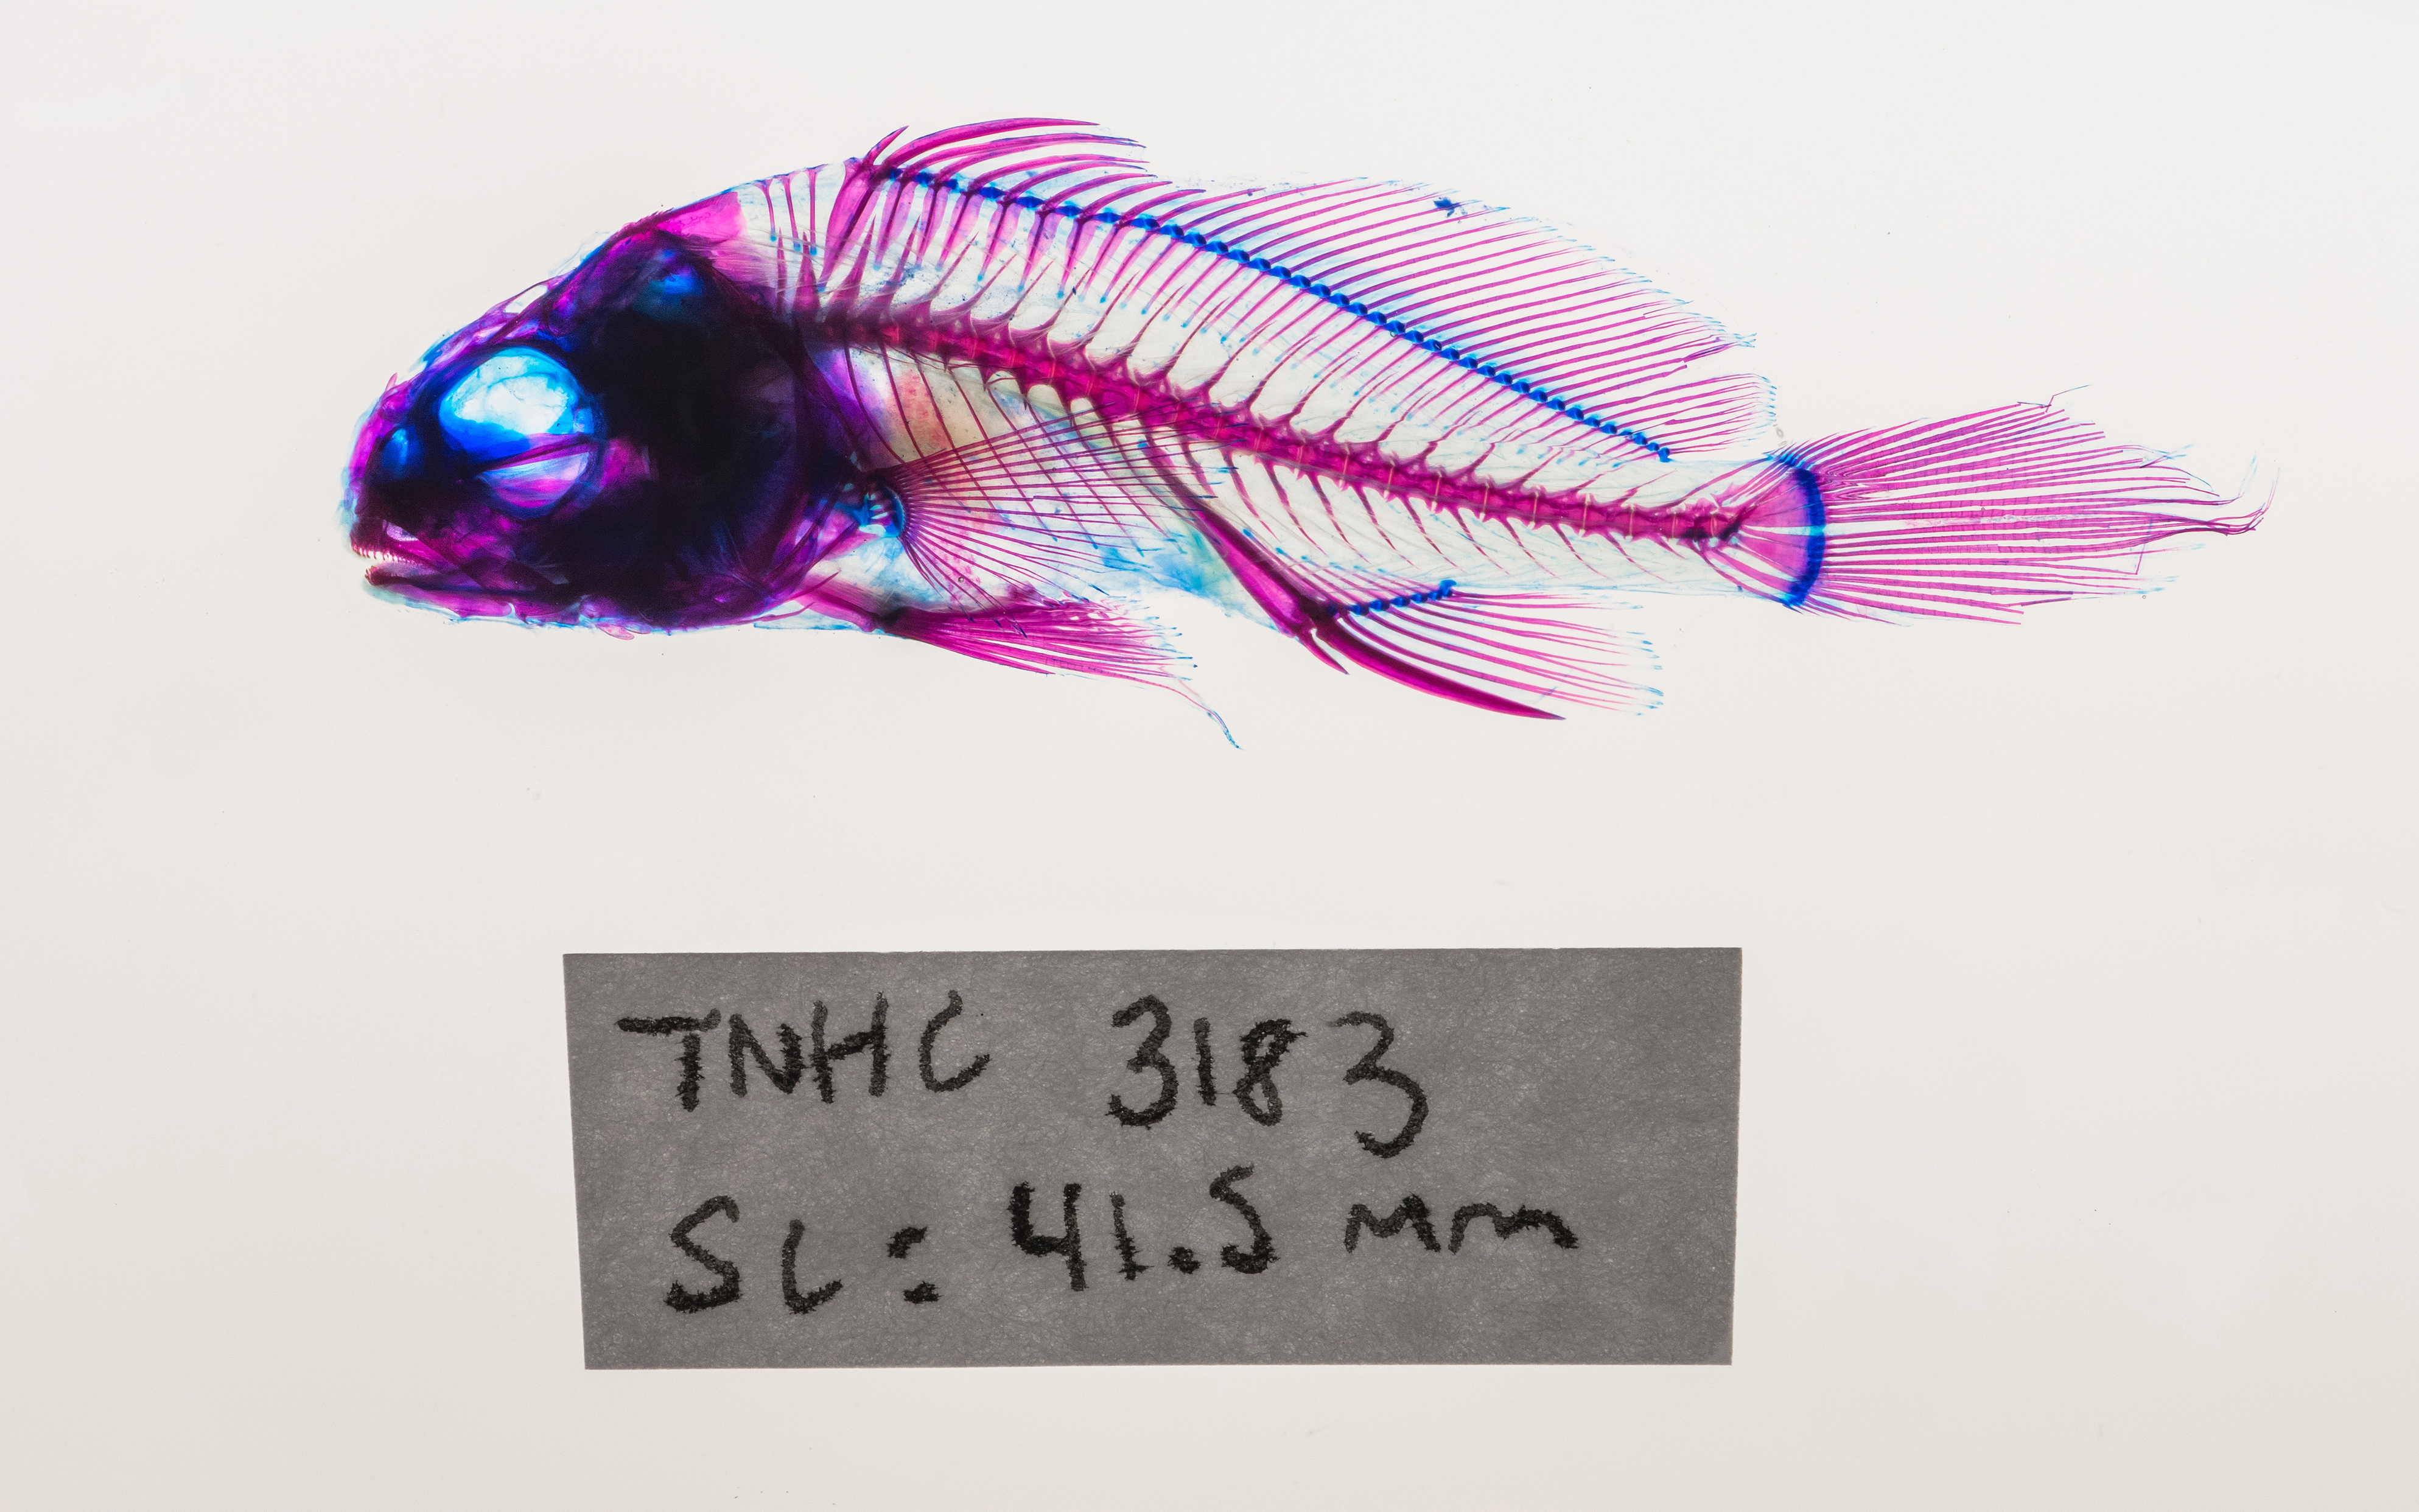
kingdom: Animalia
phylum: Chordata
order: Perciformes
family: Sciaenidae
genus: Aplodinotus
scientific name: Aplodinotus grunniens
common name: Freshwater drum
